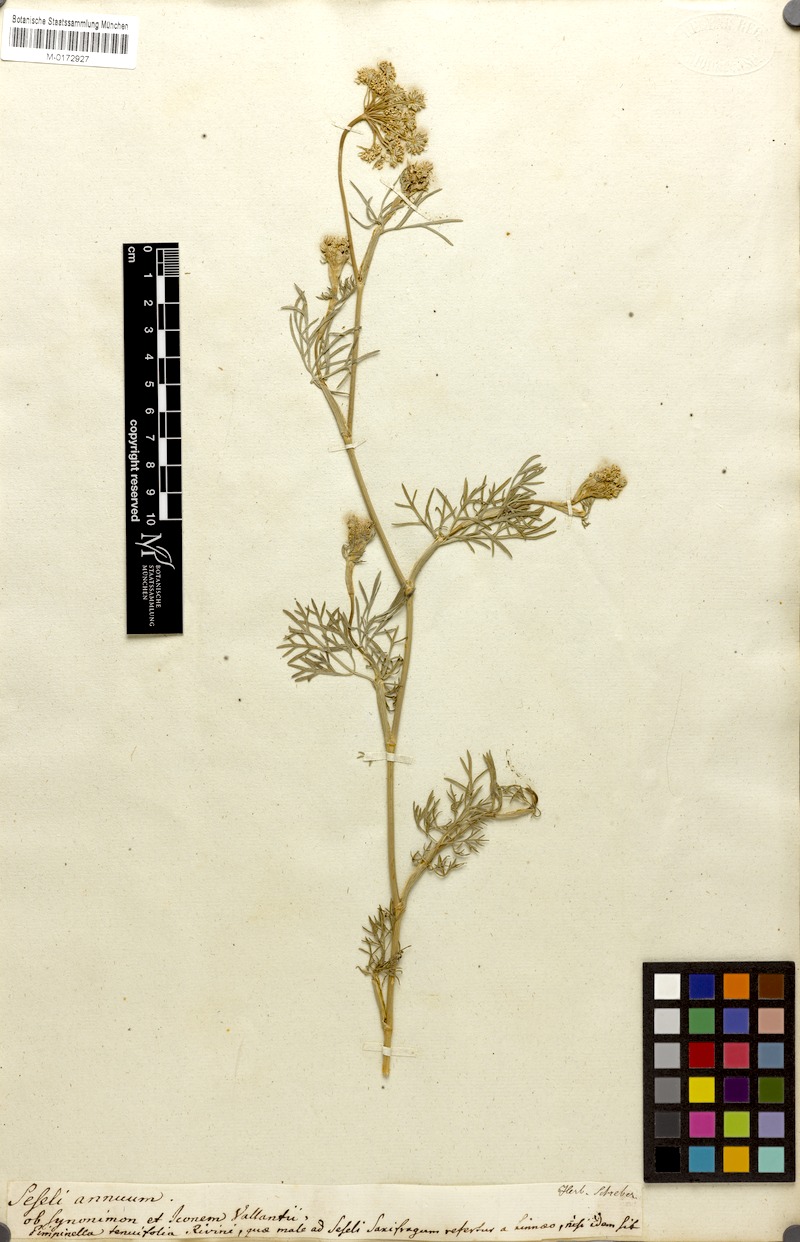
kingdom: Plantae
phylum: Tracheophyta
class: Magnoliopsida
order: Apiales
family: Apiaceae
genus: Seseli
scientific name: Seseli annuum
